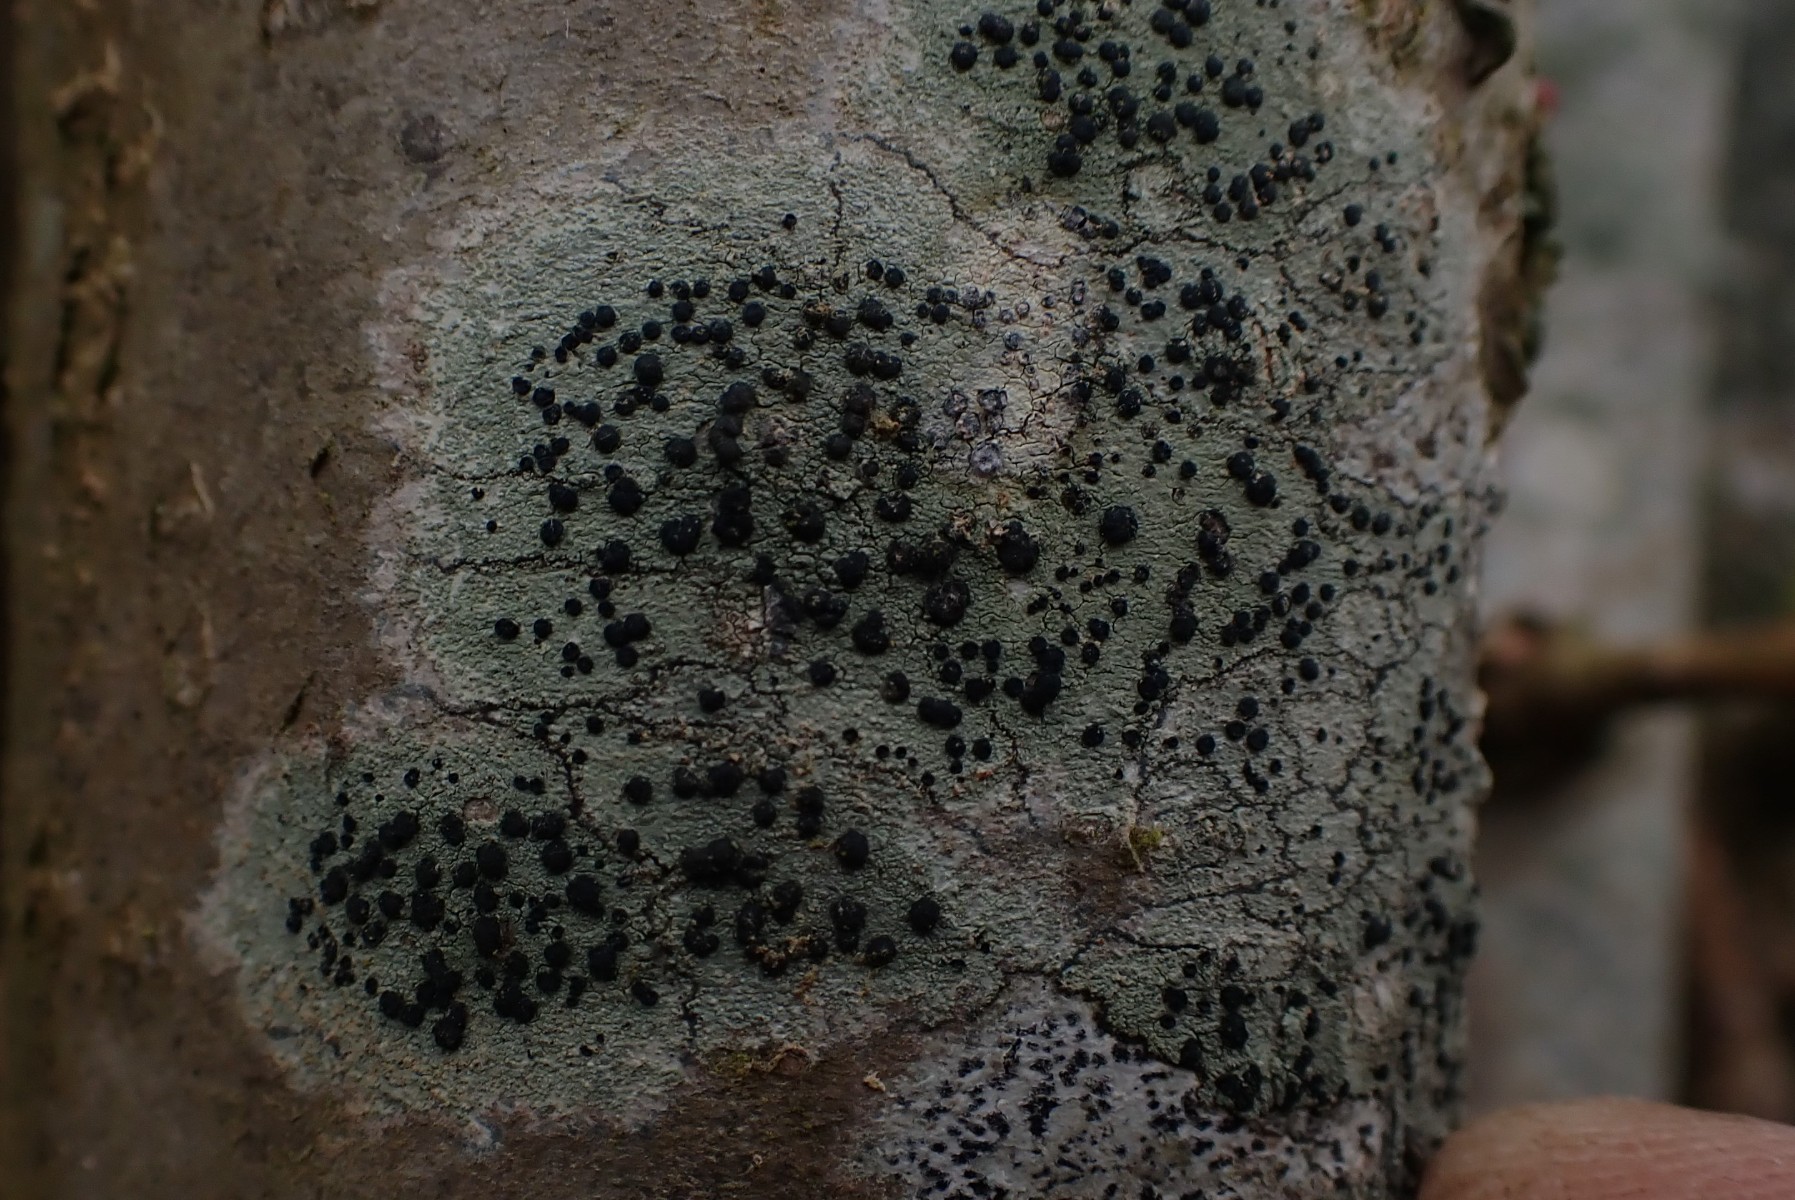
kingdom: Fungi
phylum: Ascomycota
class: Lecanoromycetes
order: Lecanorales
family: Lecanoraceae
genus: Lecidella
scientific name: Lecidella elaeochroma
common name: grågrøn skivelav
